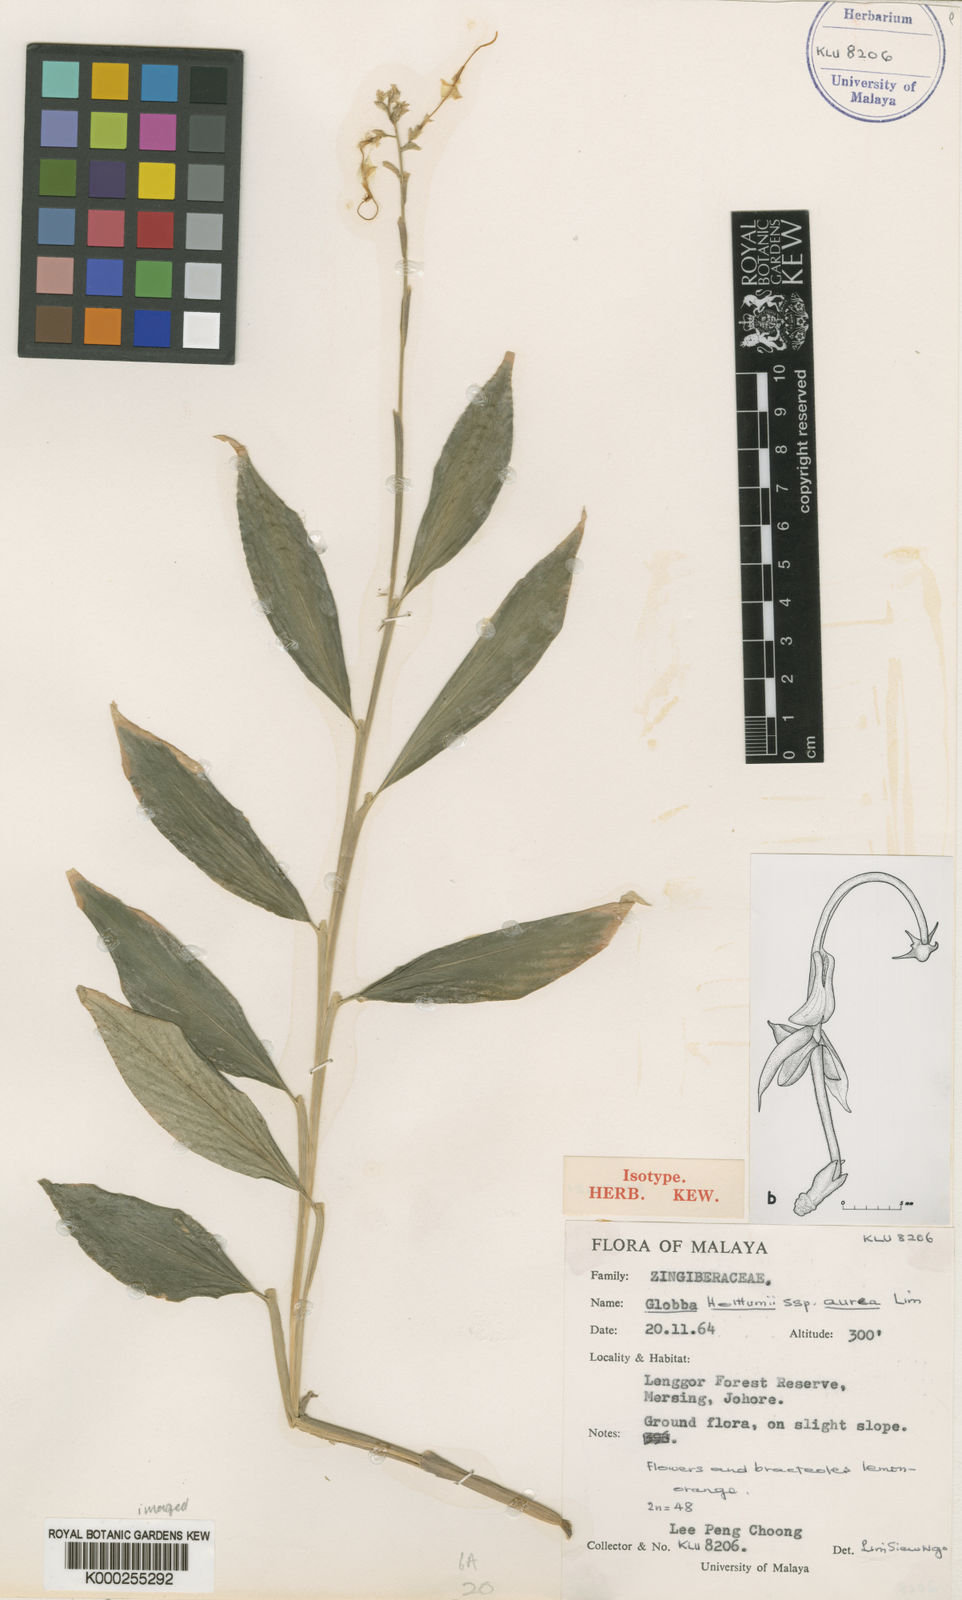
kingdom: Plantae
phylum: Tracheophyta
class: Liliopsida
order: Zingiberales
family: Zingiberaceae
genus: Globba
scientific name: Globba holttumii
